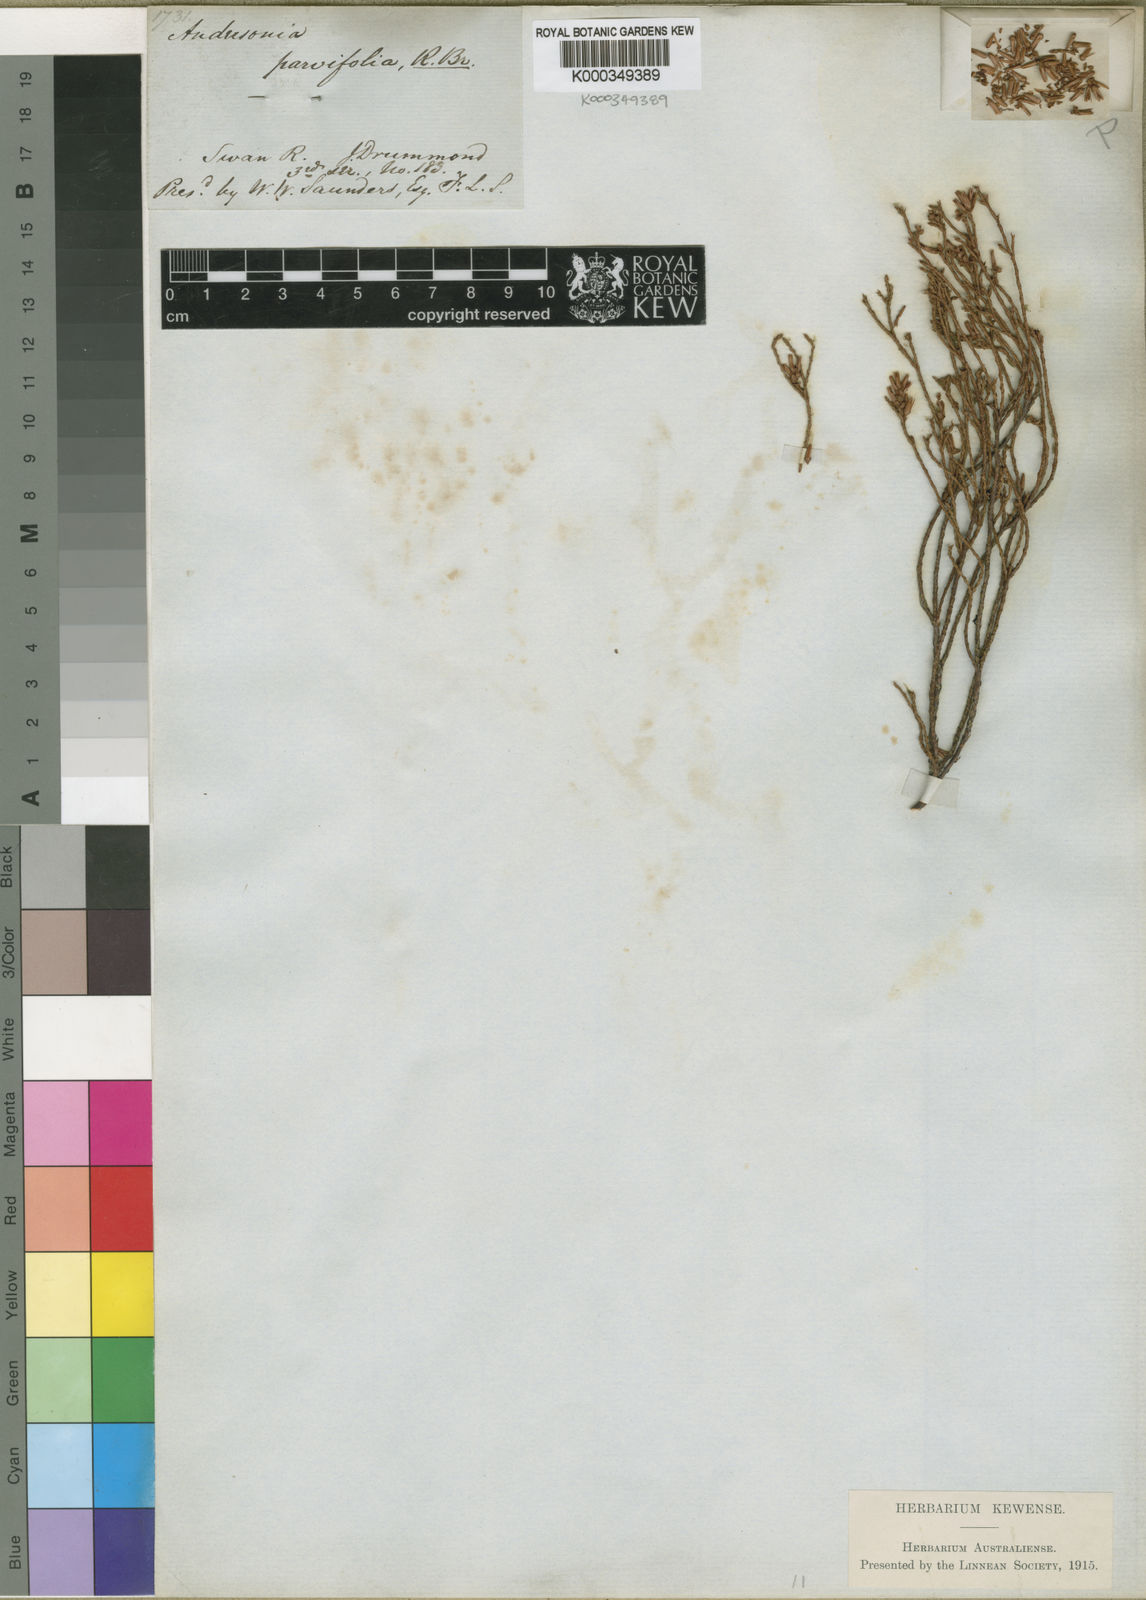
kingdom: Plantae
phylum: Tracheophyta
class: Magnoliopsida
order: Ericales
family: Ericaceae
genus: Andersonia
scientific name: Andersonia parvifolia
